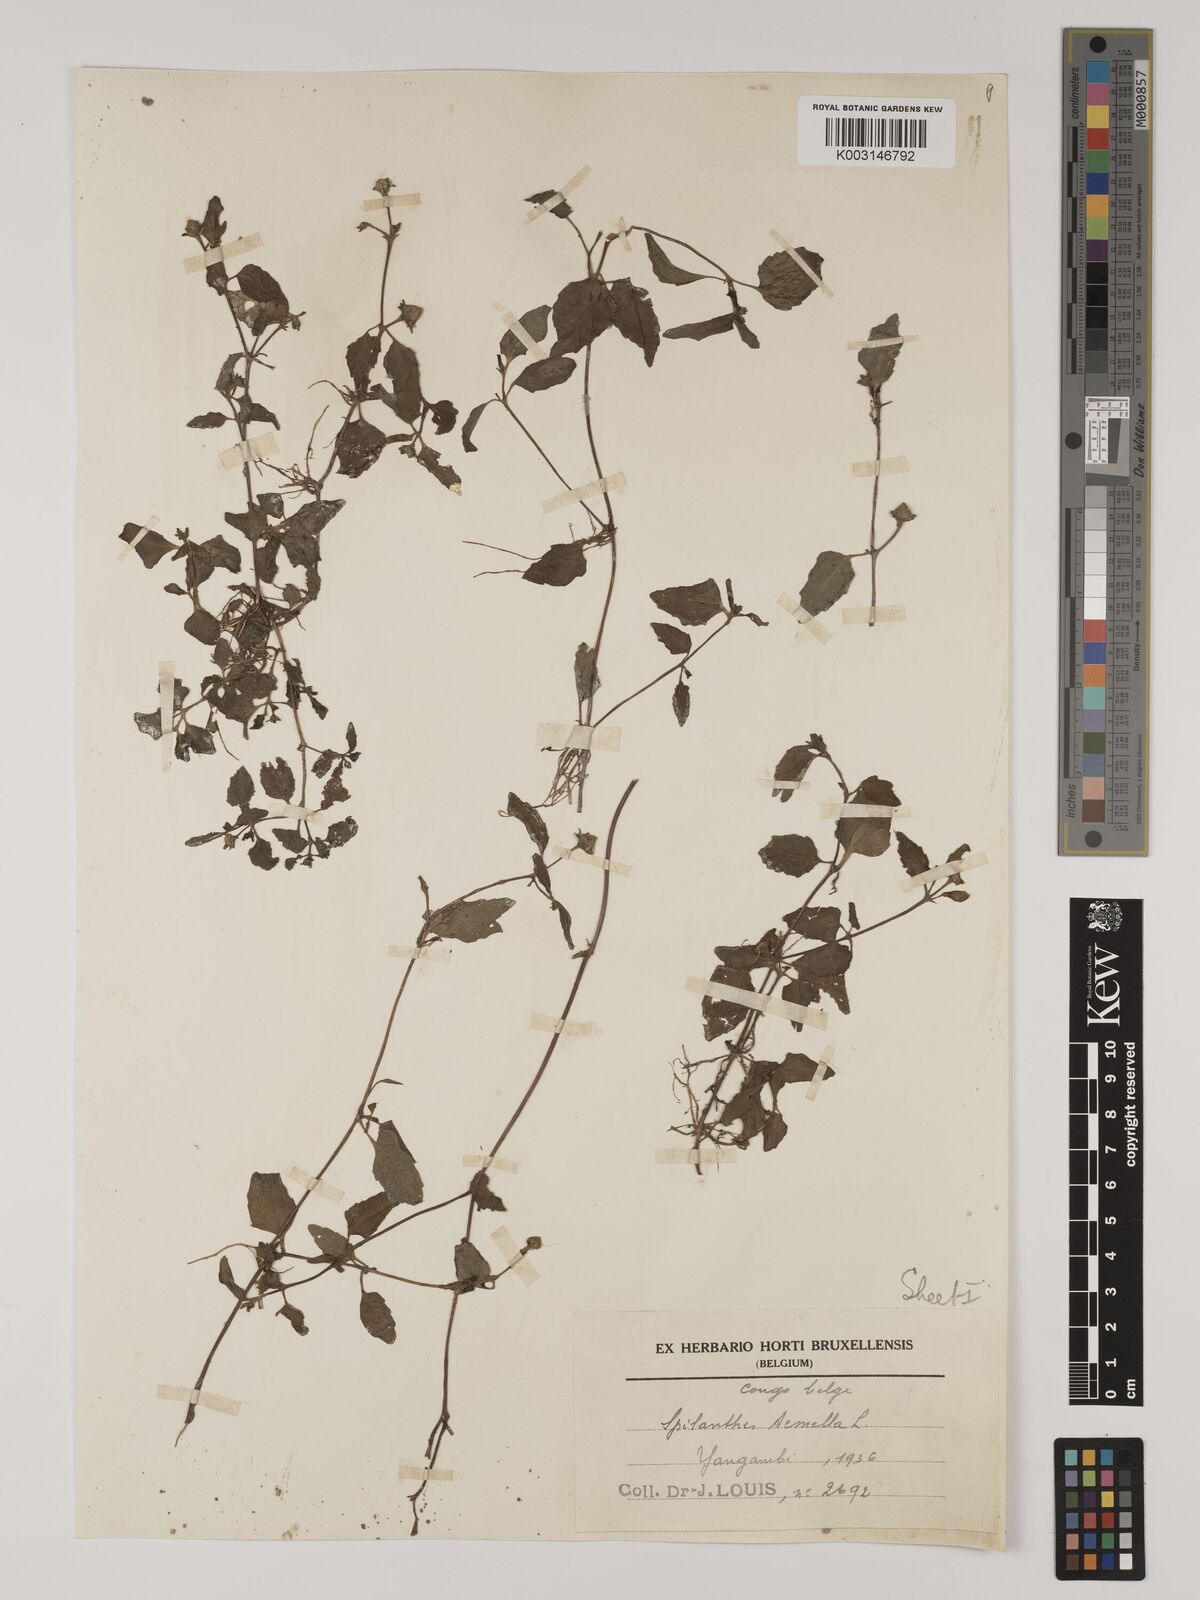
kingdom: Plantae
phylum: Tracheophyta
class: Magnoliopsida
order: Asterales
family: Asteraceae
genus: Acmella
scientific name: Acmella caulirhiza
